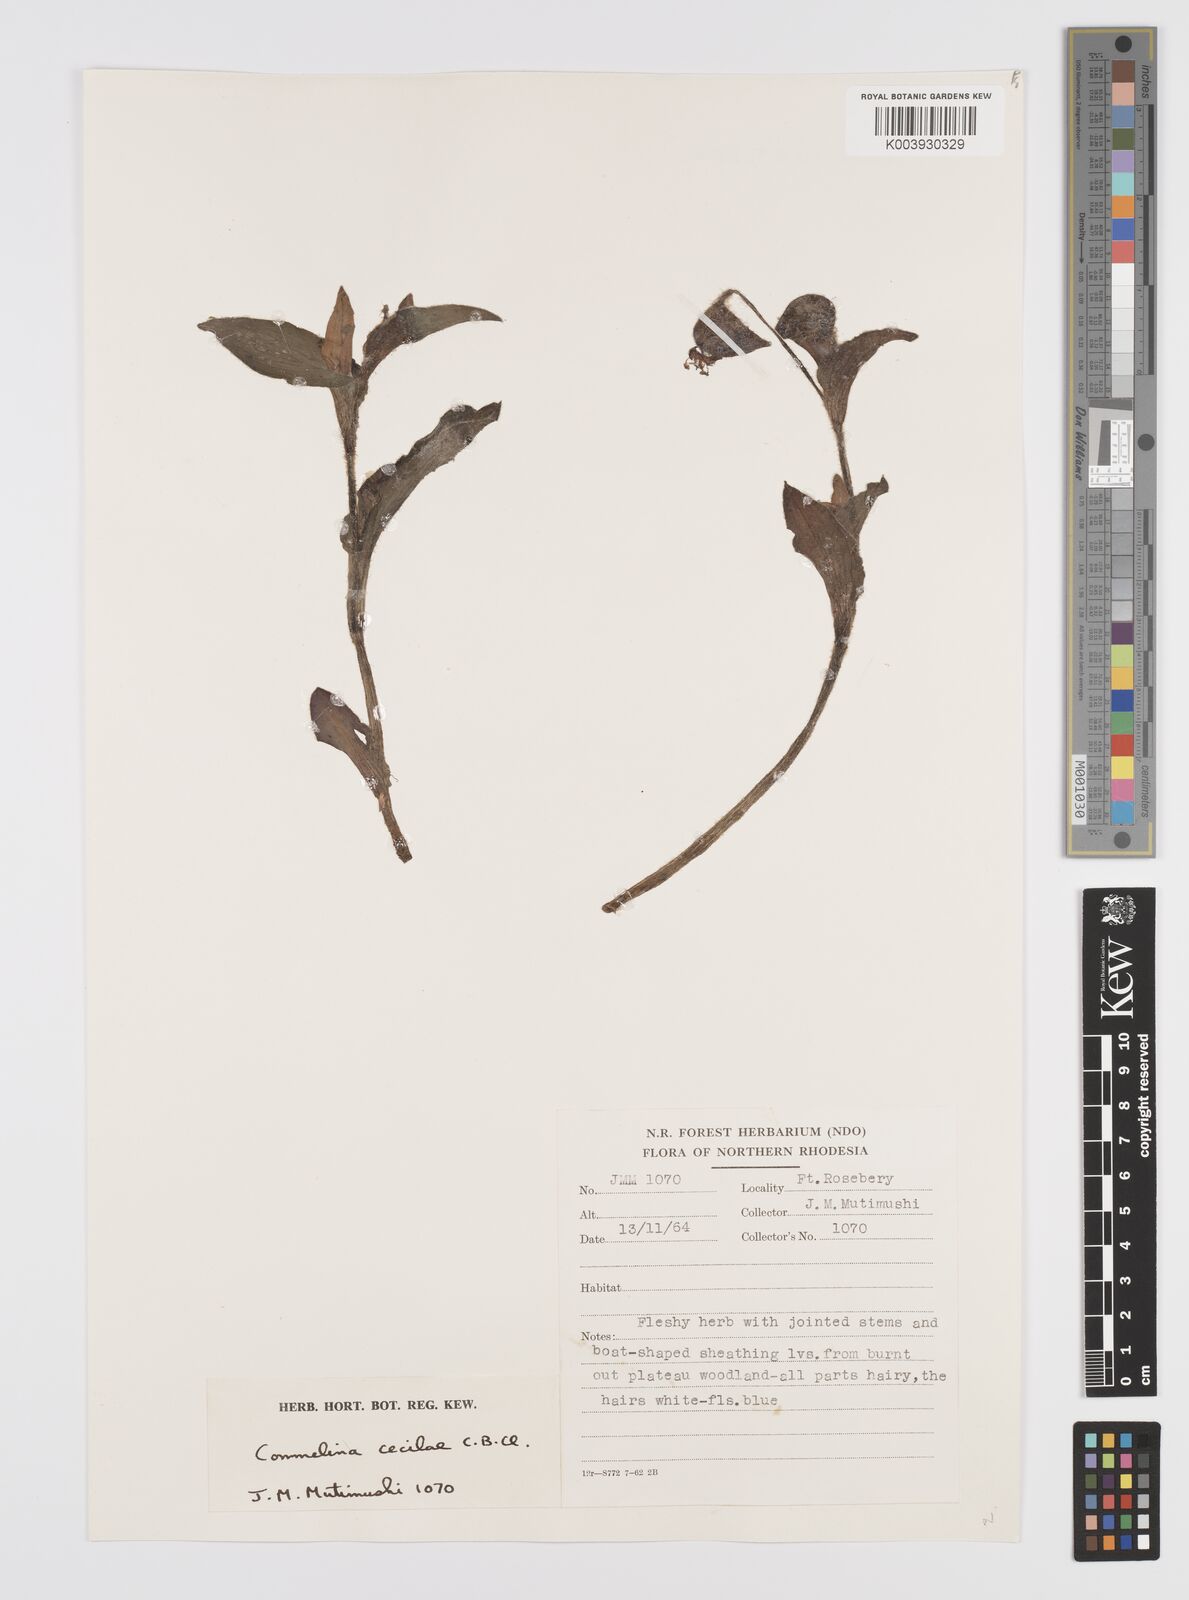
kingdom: Plantae
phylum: Tracheophyta
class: Liliopsida
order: Commelinales
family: Commelinaceae
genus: Commelina
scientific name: Commelina cecilae
